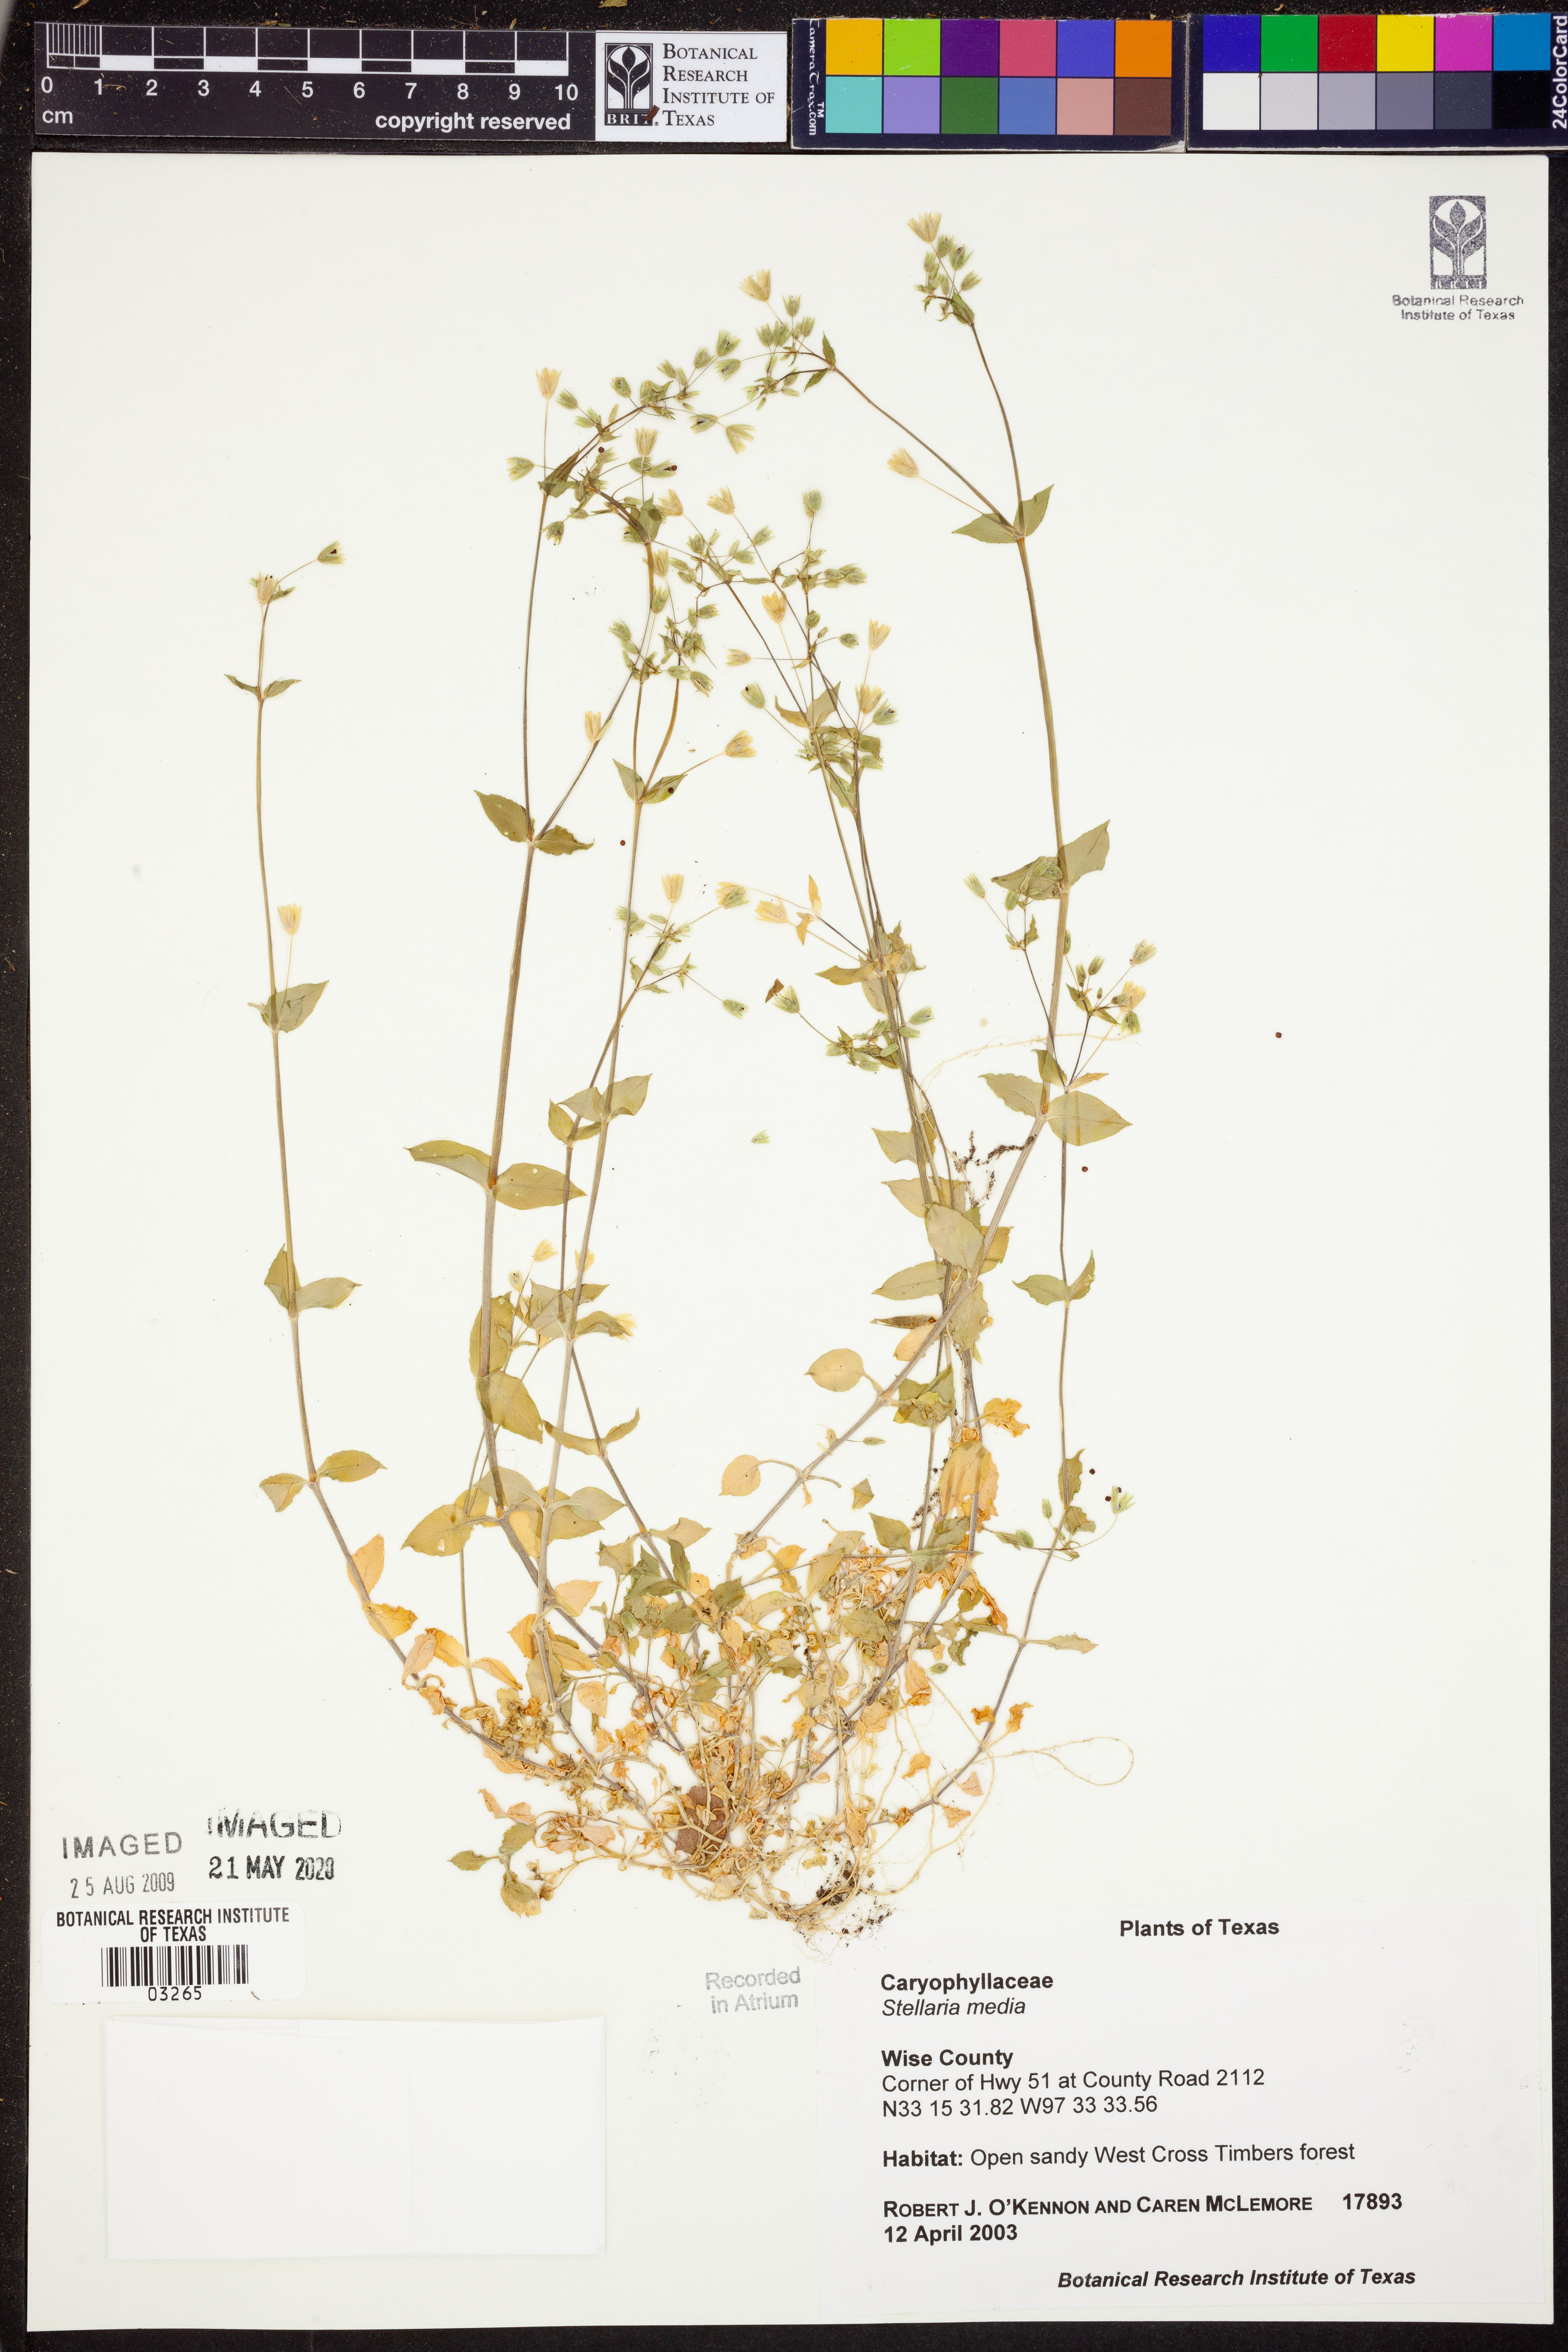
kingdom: Plantae
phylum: Tracheophyta
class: Magnoliopsida
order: Caryophyllales
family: Caryophyllaceae
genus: Stellaria
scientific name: Stellaria media
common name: Common chickweed
